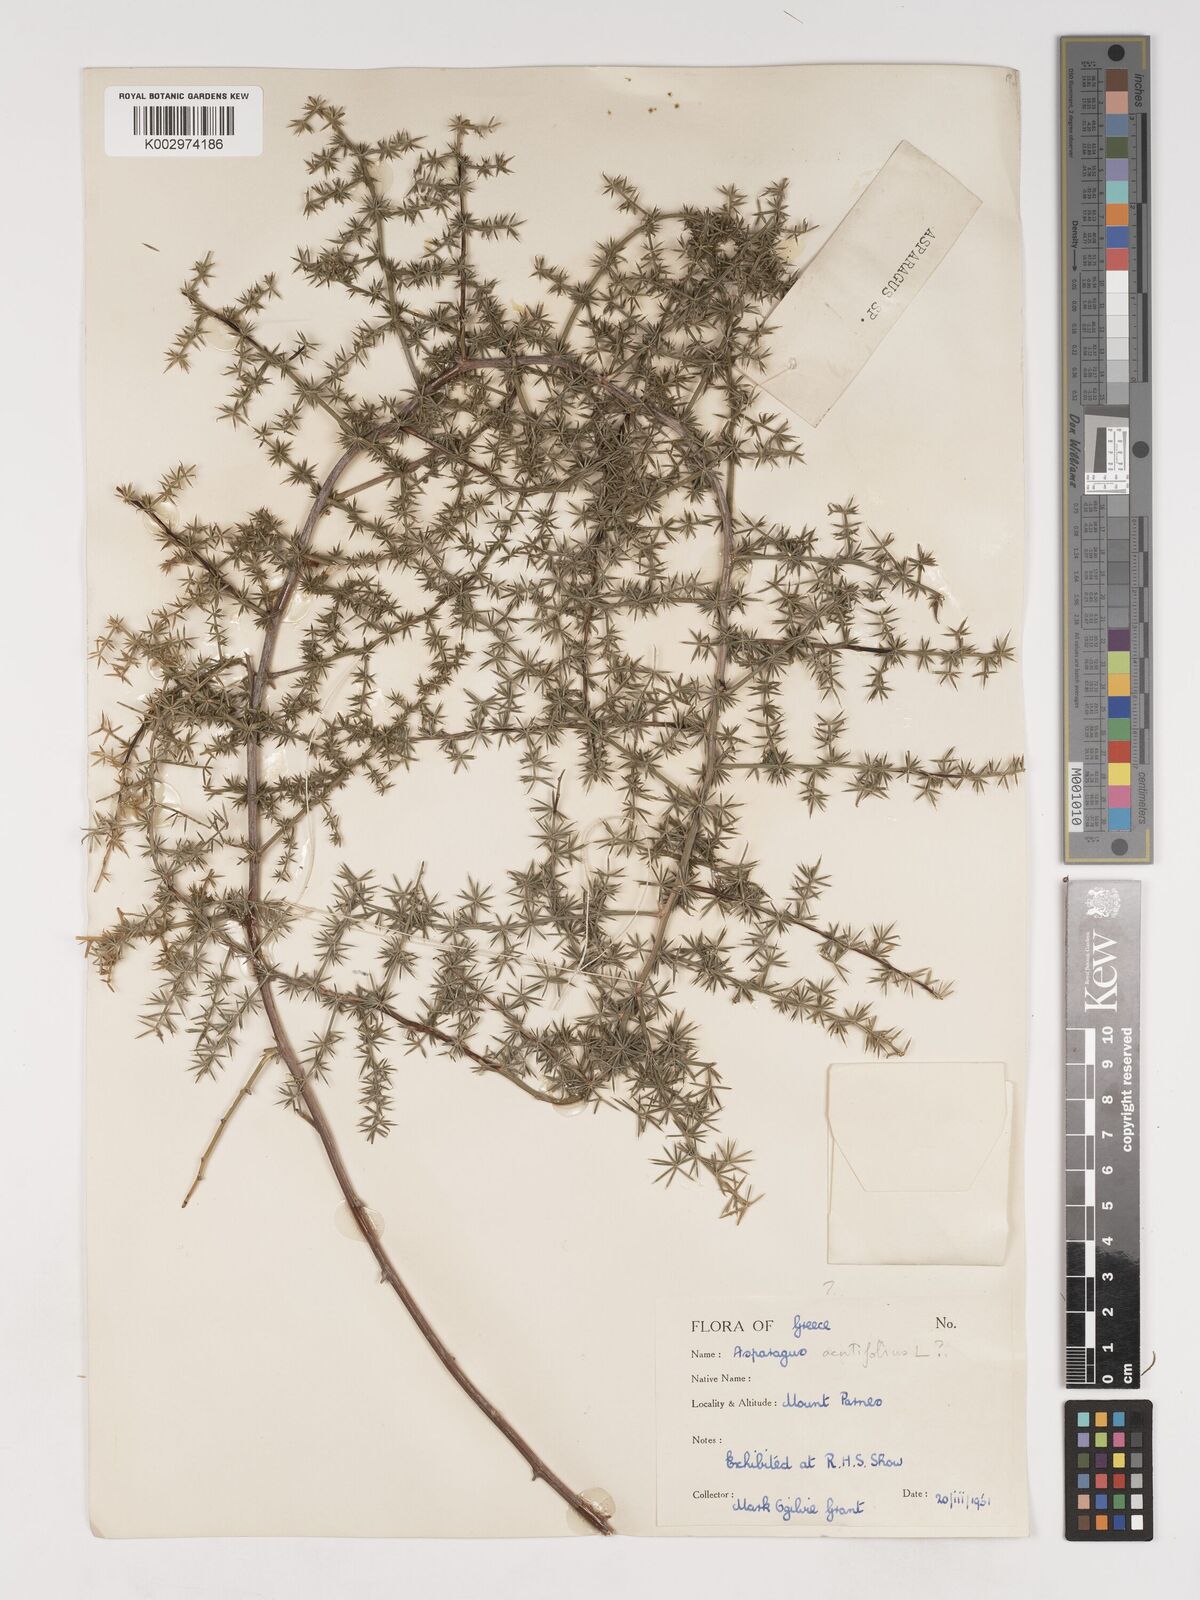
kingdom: Plantae
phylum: Tracheophyta
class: Liliopsida
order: Asparagales
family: Asparagaceae
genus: Asparagus
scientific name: Asparagus
